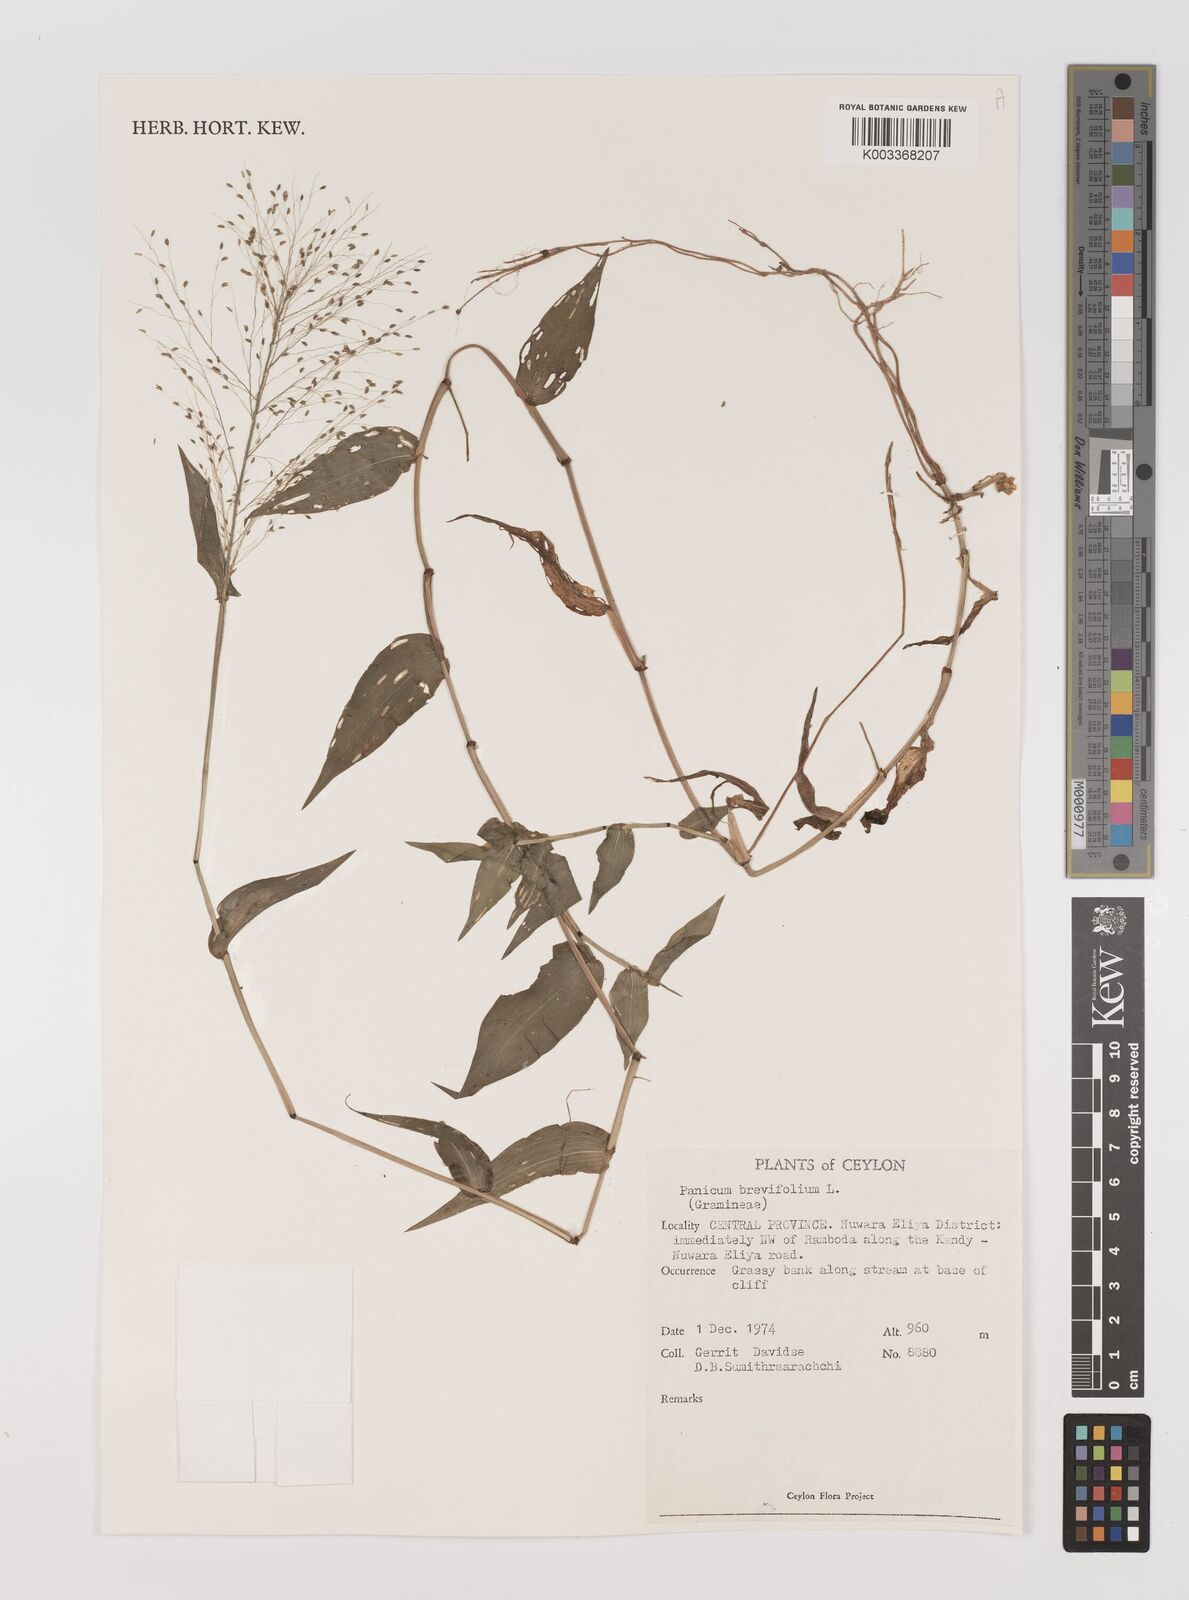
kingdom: Plantae
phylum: Tracheophyta
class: Liliopsida
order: Poales
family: Poaceae
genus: Panicum
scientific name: Panicum brevifolium
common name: Shortleaf panic grass
